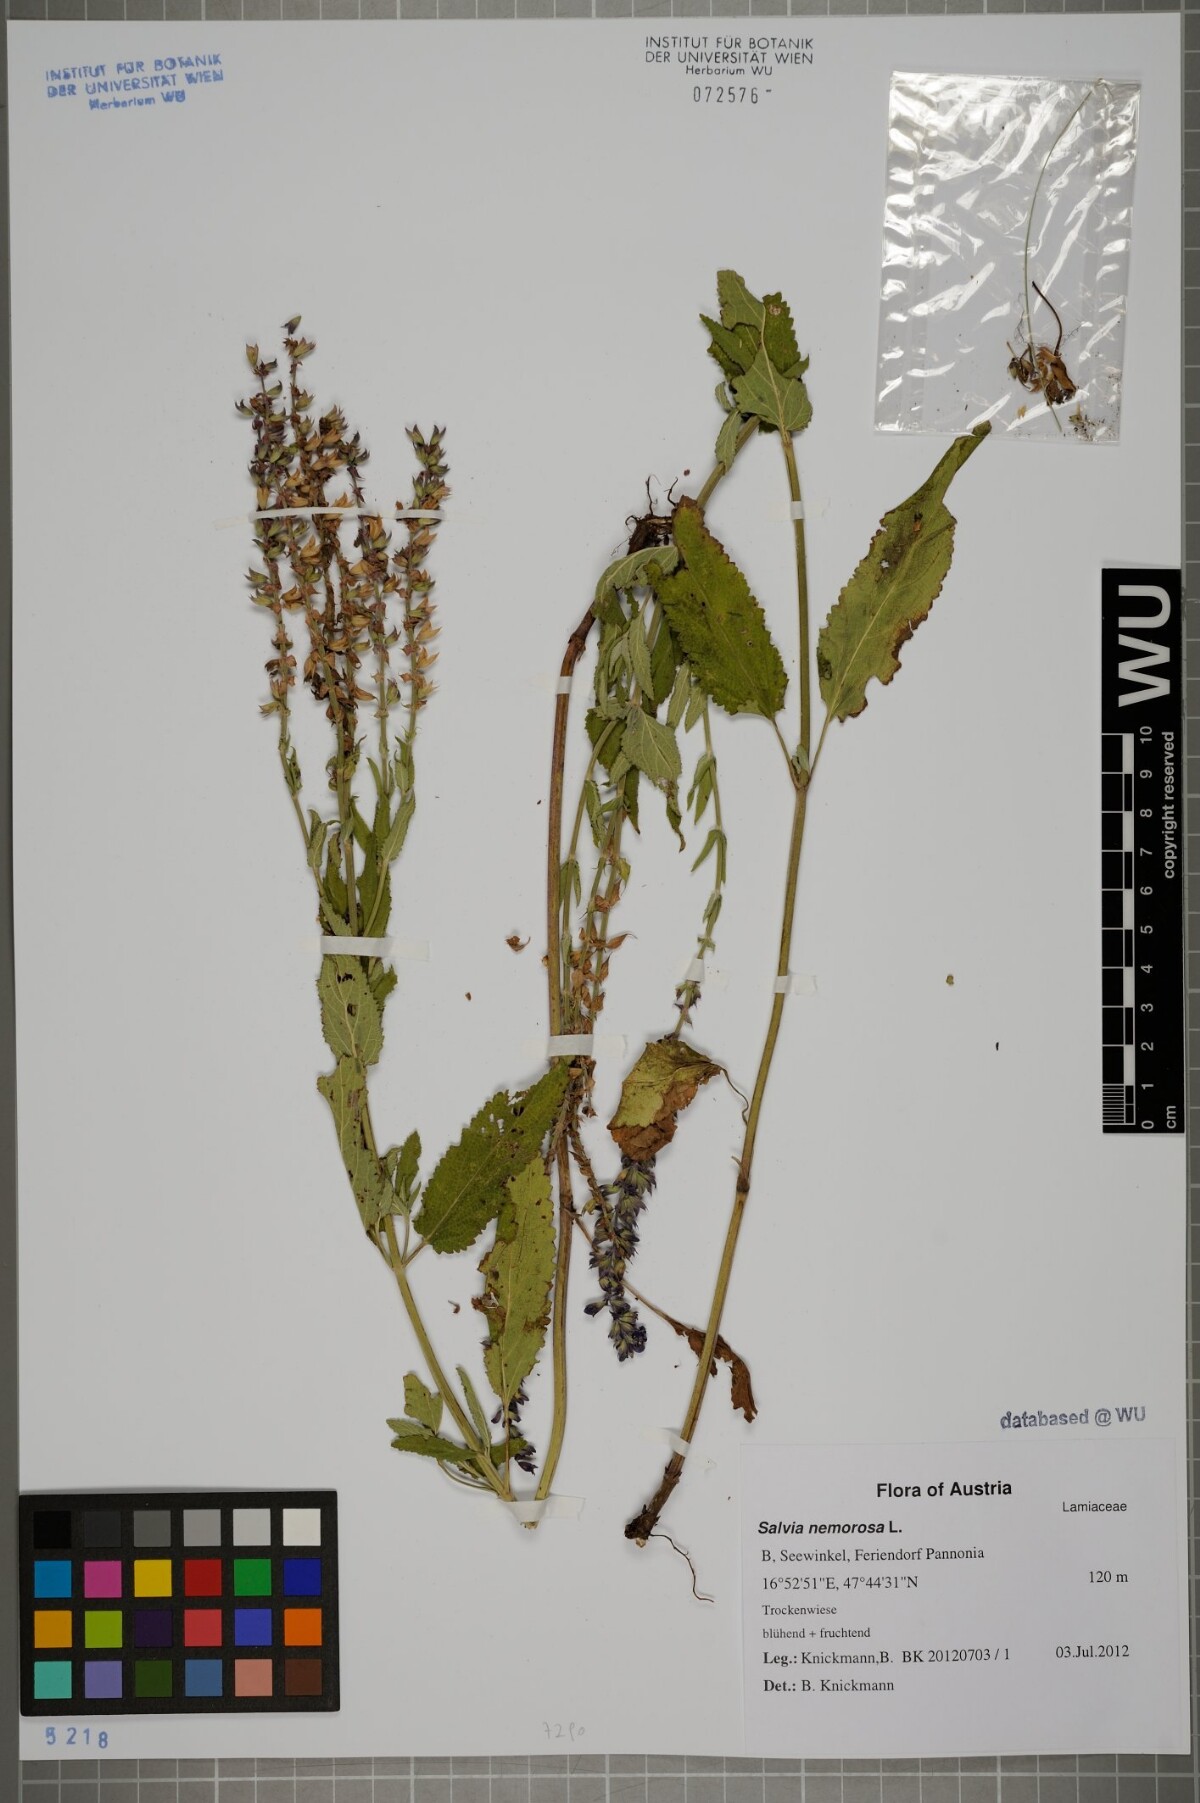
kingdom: Plantae
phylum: Tracheophyta
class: Magnoliopsida
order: Lamiales
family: Lamiaceae
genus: Salvia
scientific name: Salvia nemorosa
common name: Balkan clary
